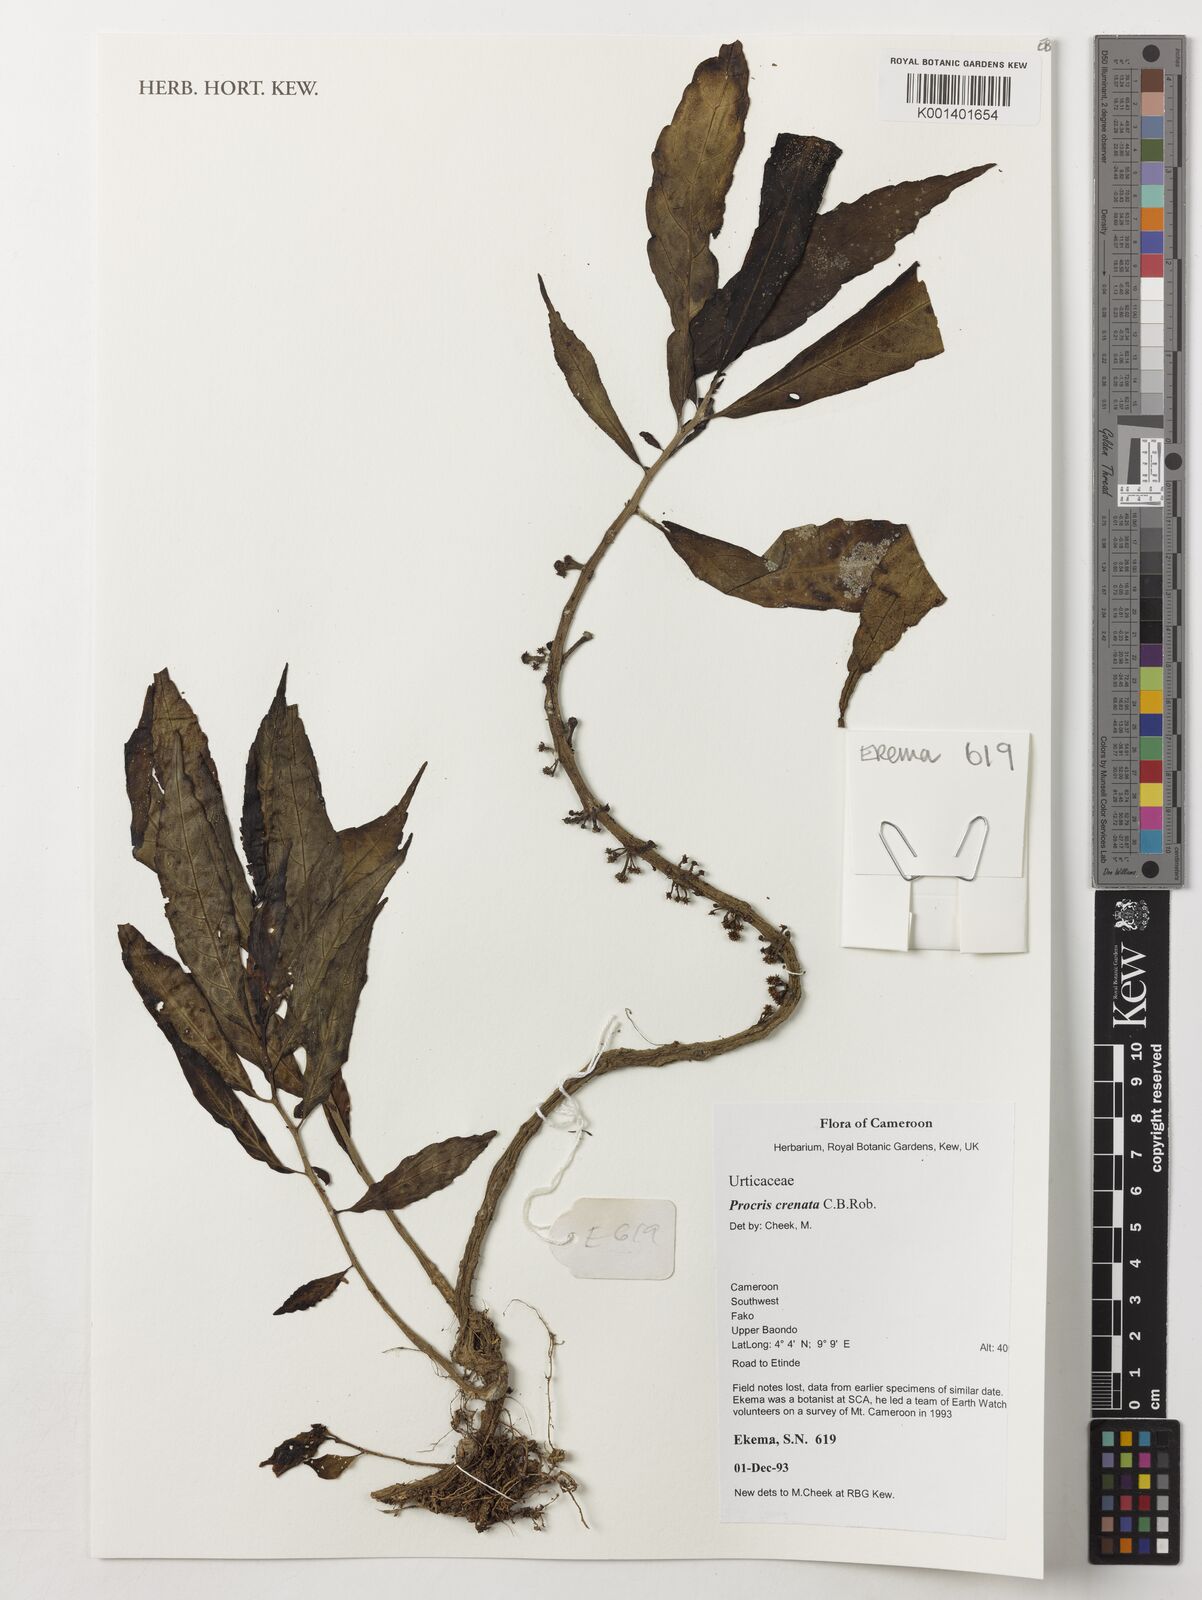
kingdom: Plantae
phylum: Tracheophyta
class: Magnoliopsida
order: Rosales
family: Urticaceae
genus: Procris
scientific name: Procris crenata
